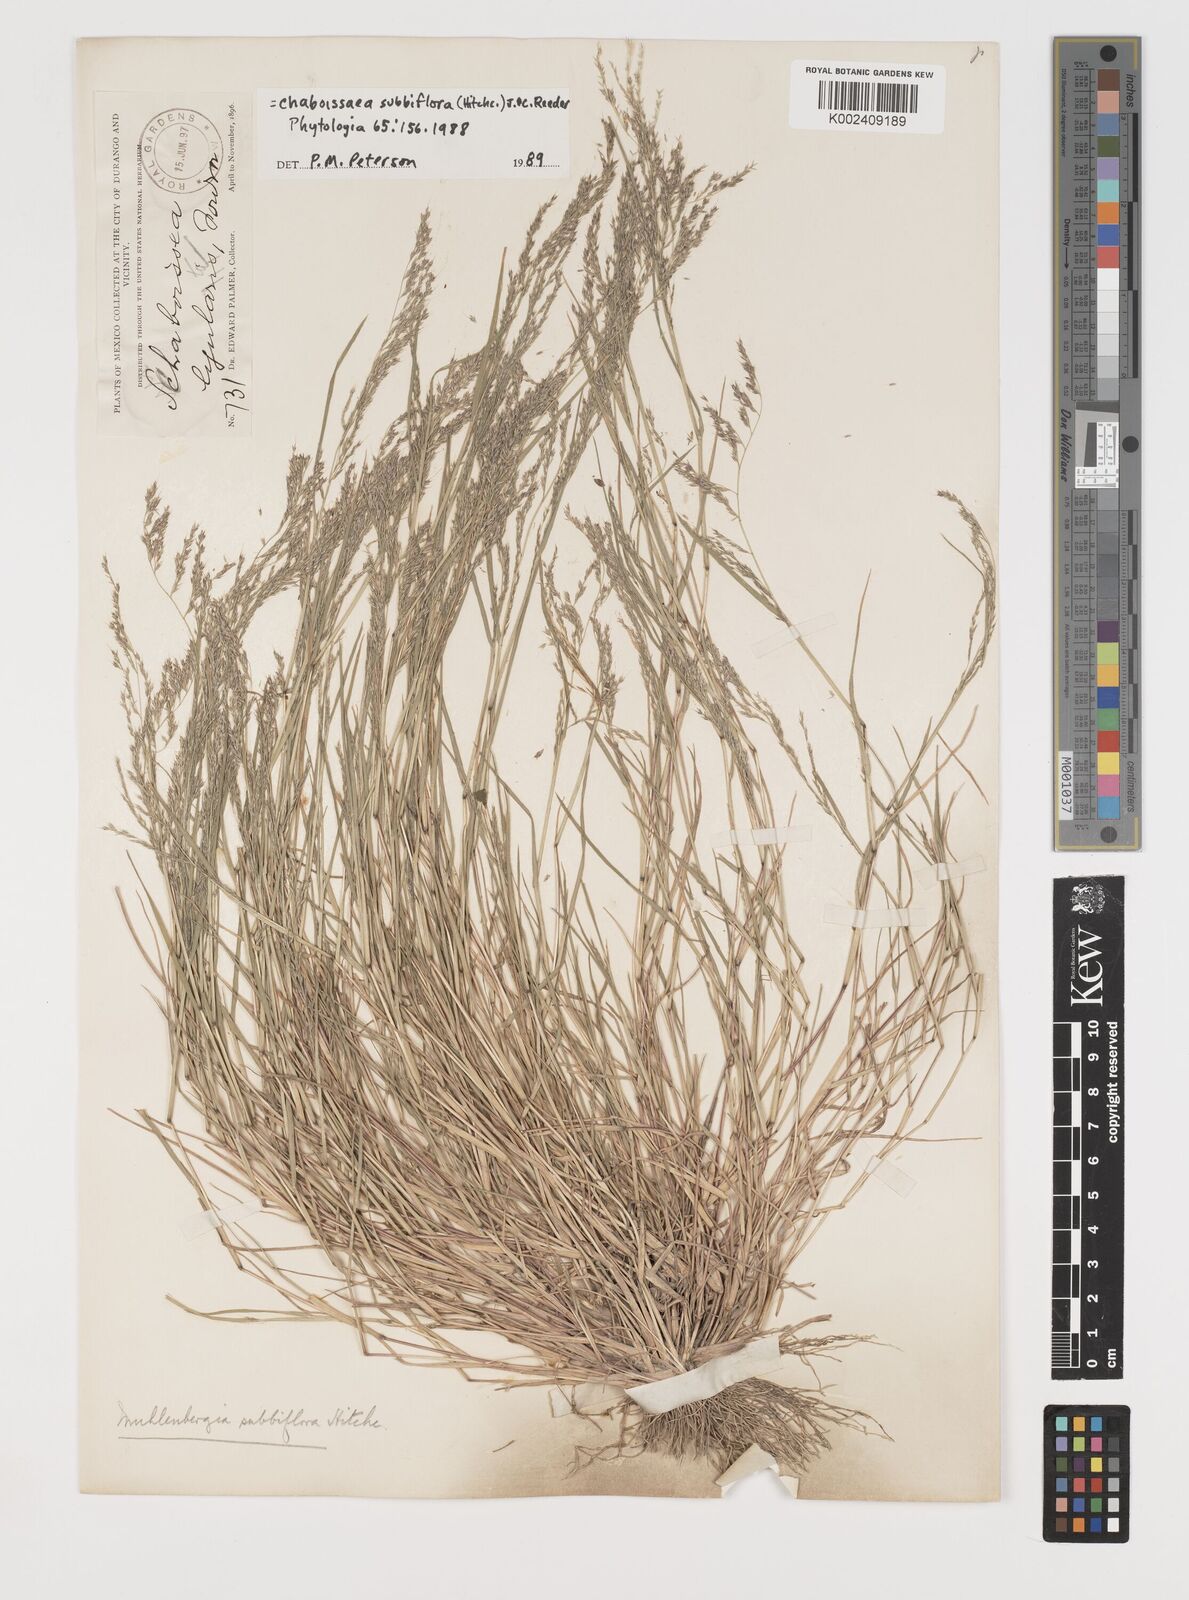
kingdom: Plantae
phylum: Tracheophyta
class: Liliopsida
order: Poales
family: Poaceae
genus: Muhlenbergia
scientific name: Muhlenbergia subbiflora
